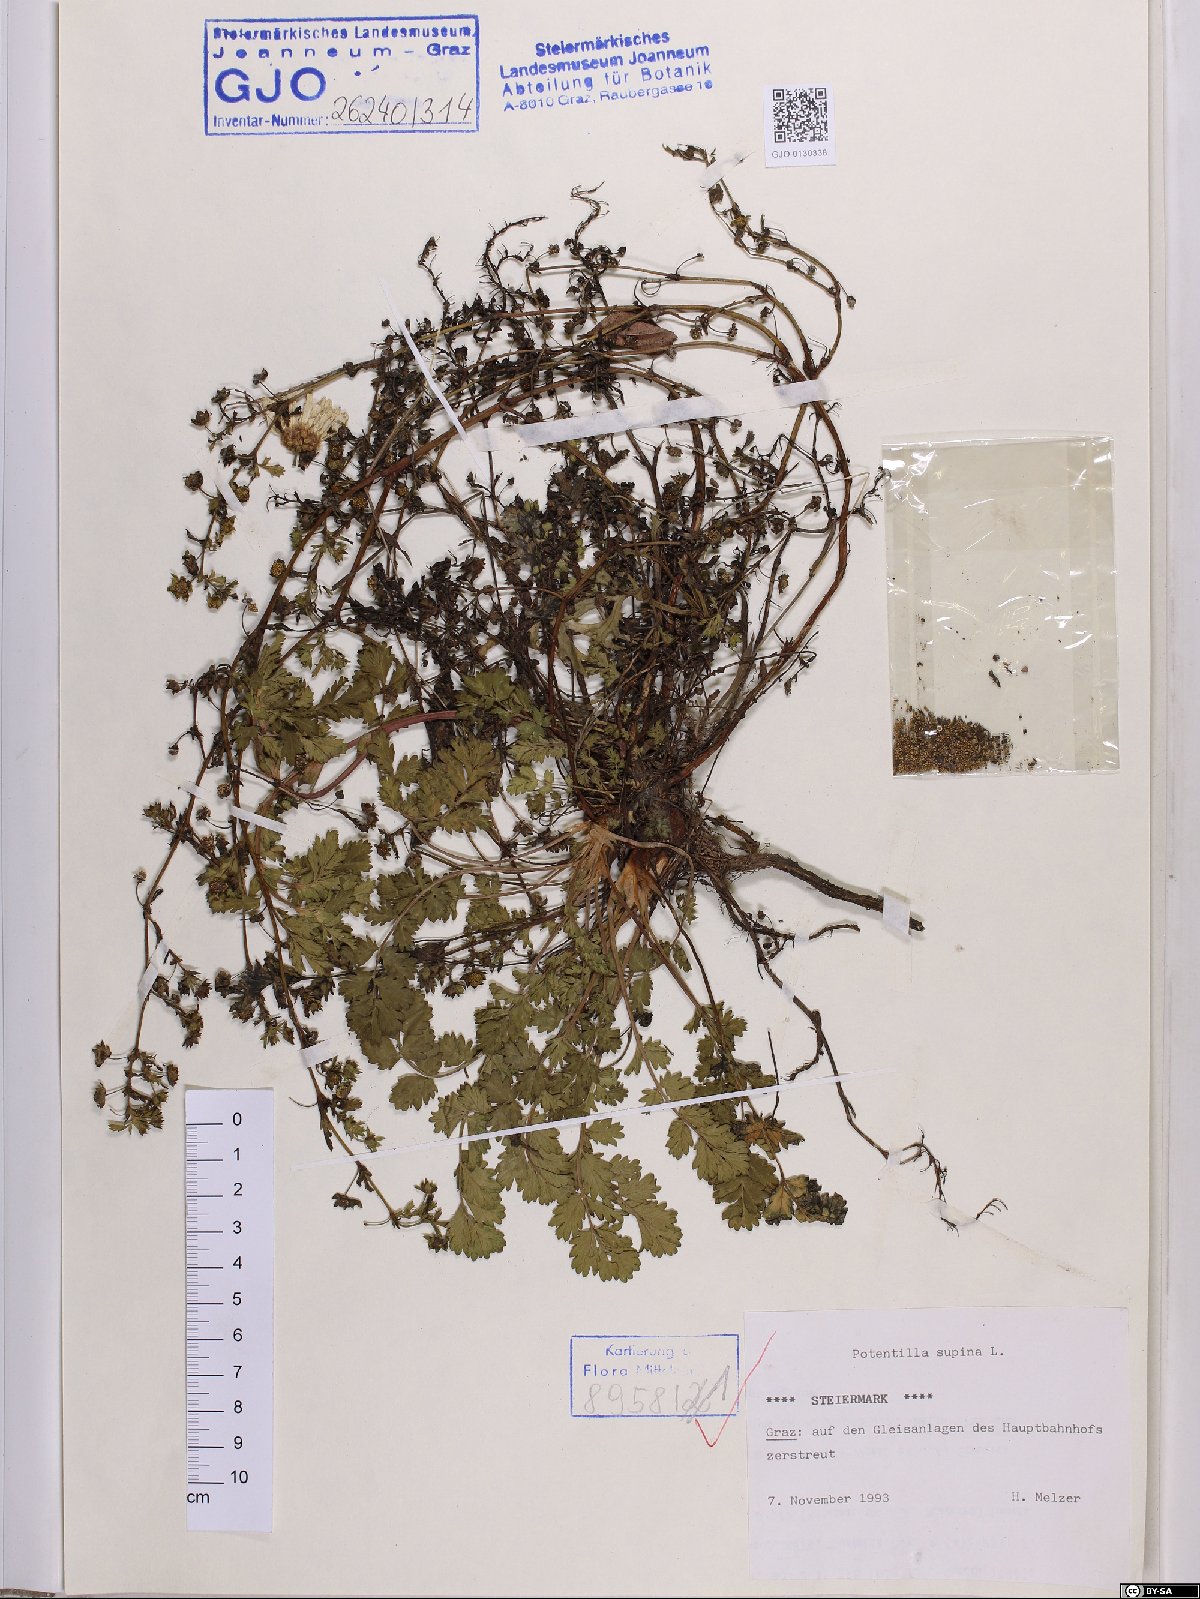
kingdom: Plantae
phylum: Tracheophyta
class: Magnoliopsida
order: Rosales
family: Rosaceae
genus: Potentilla
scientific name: Potentilla supina
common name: Prostrate cinquefoil
